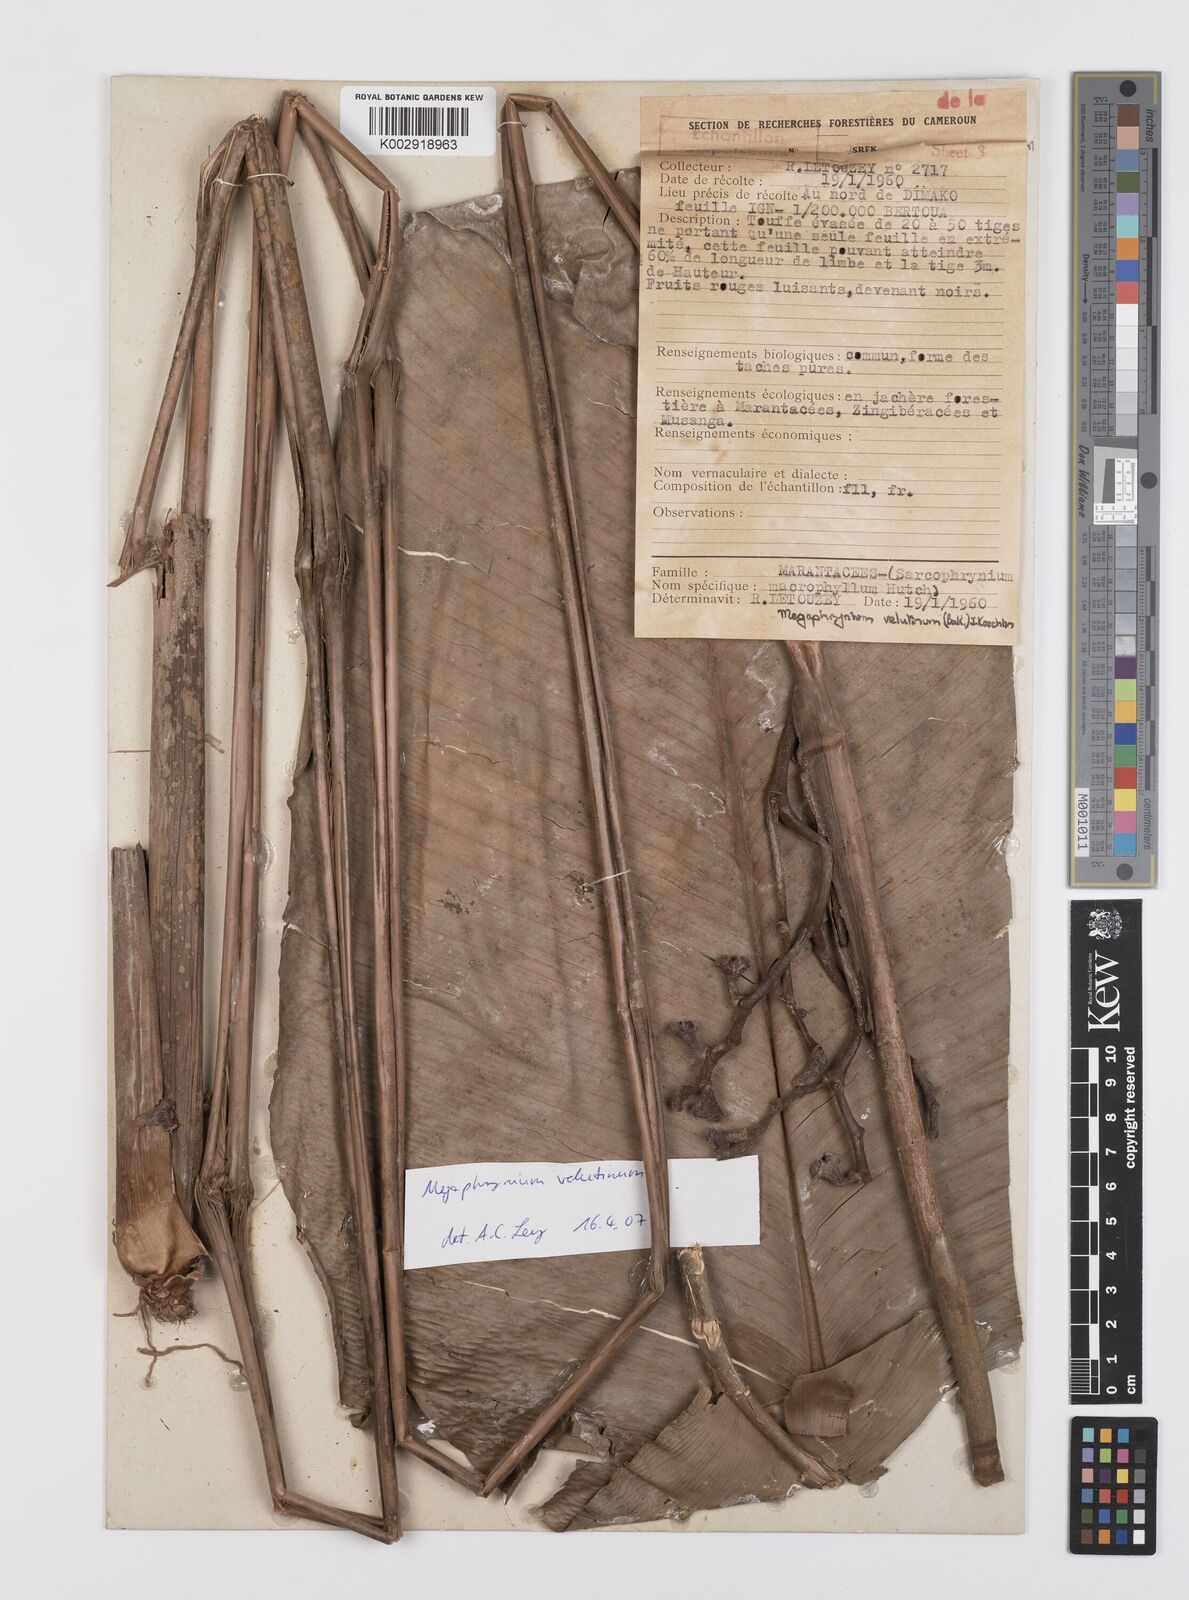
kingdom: Plantae
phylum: Tracheophyta
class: Liliopsida
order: Zingiberales
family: Marantaceae
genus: Megaphrynium
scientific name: Megaphrynium velutinum
